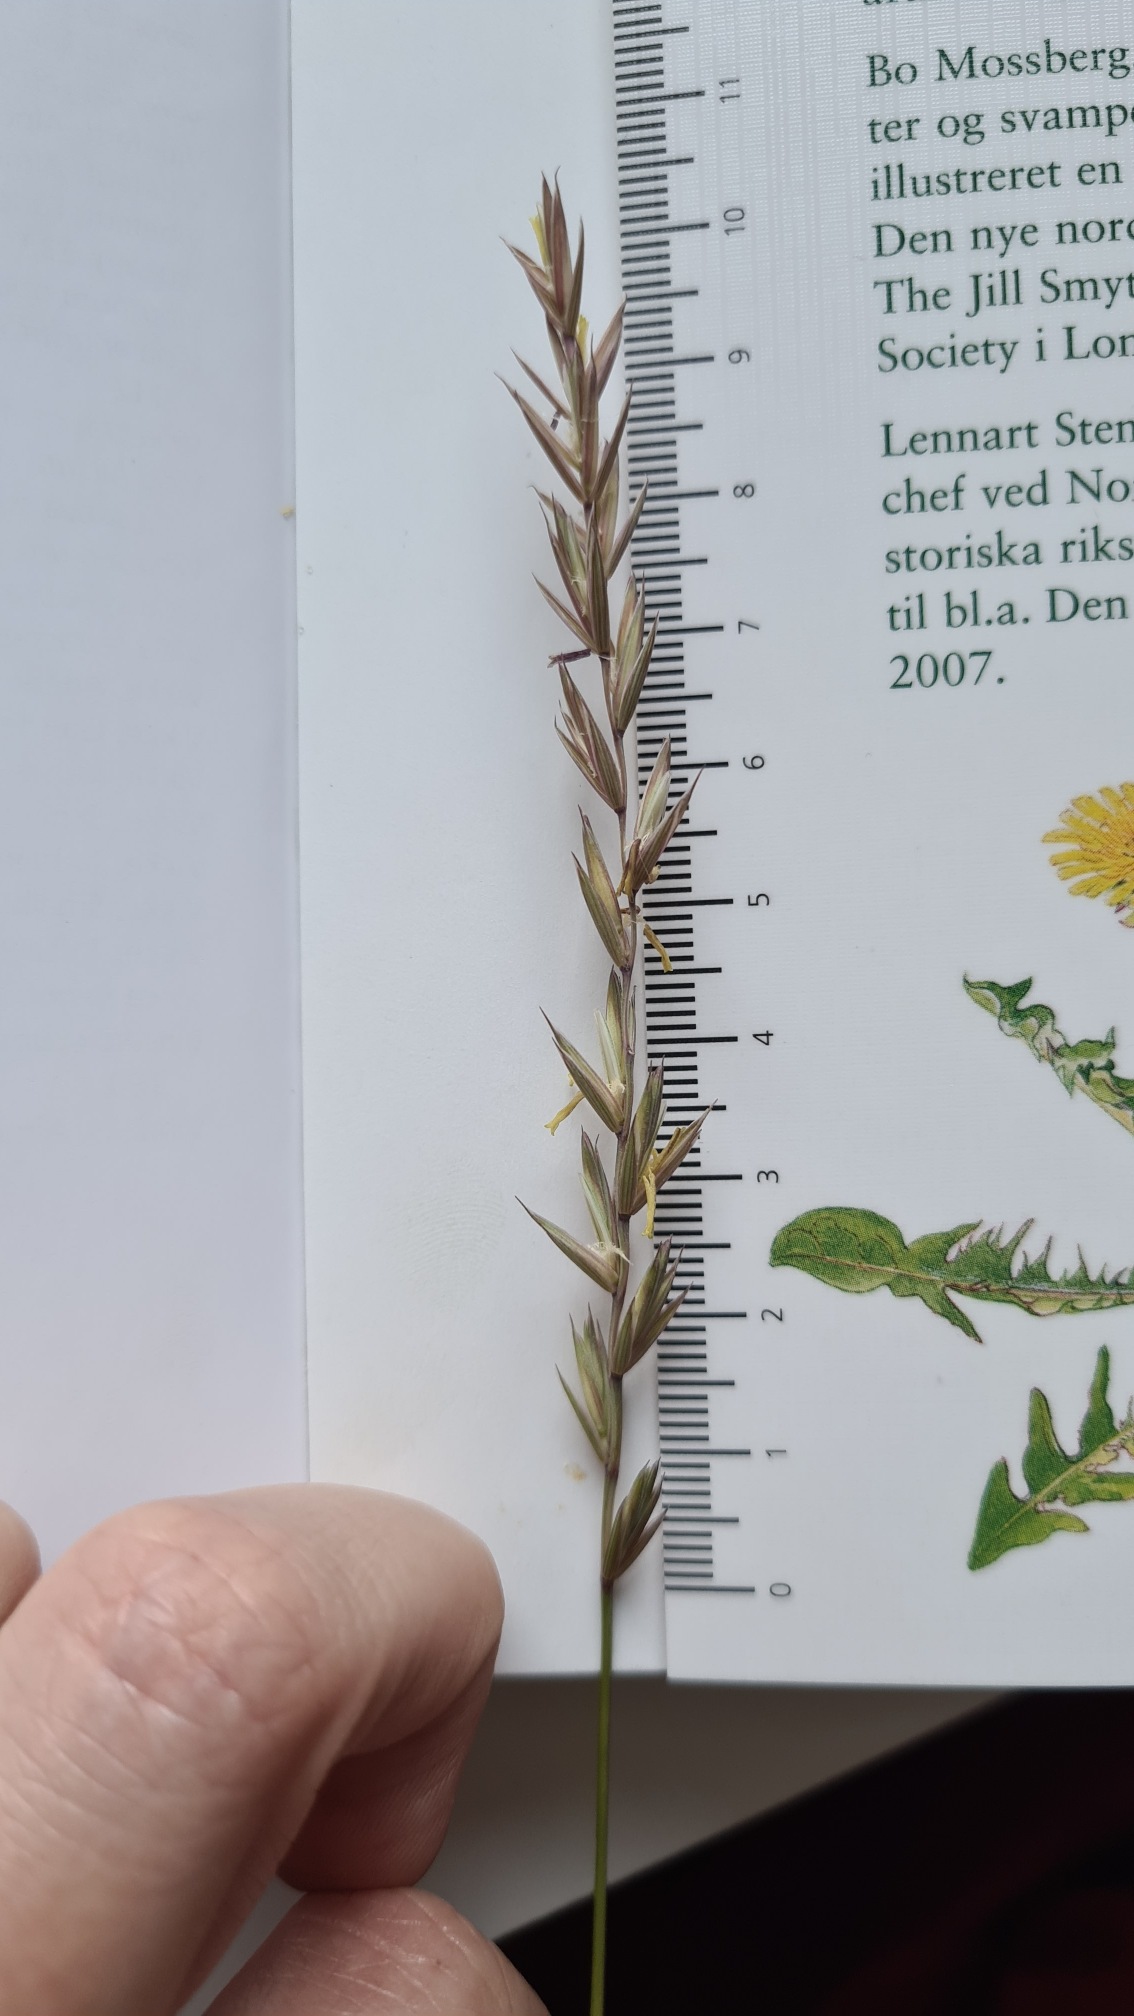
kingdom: Plantae
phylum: Tracheophyta
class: Liliopsida
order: Poales
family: Poaceae
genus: Elymus
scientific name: Elymus repens
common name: Almindelig kvik
